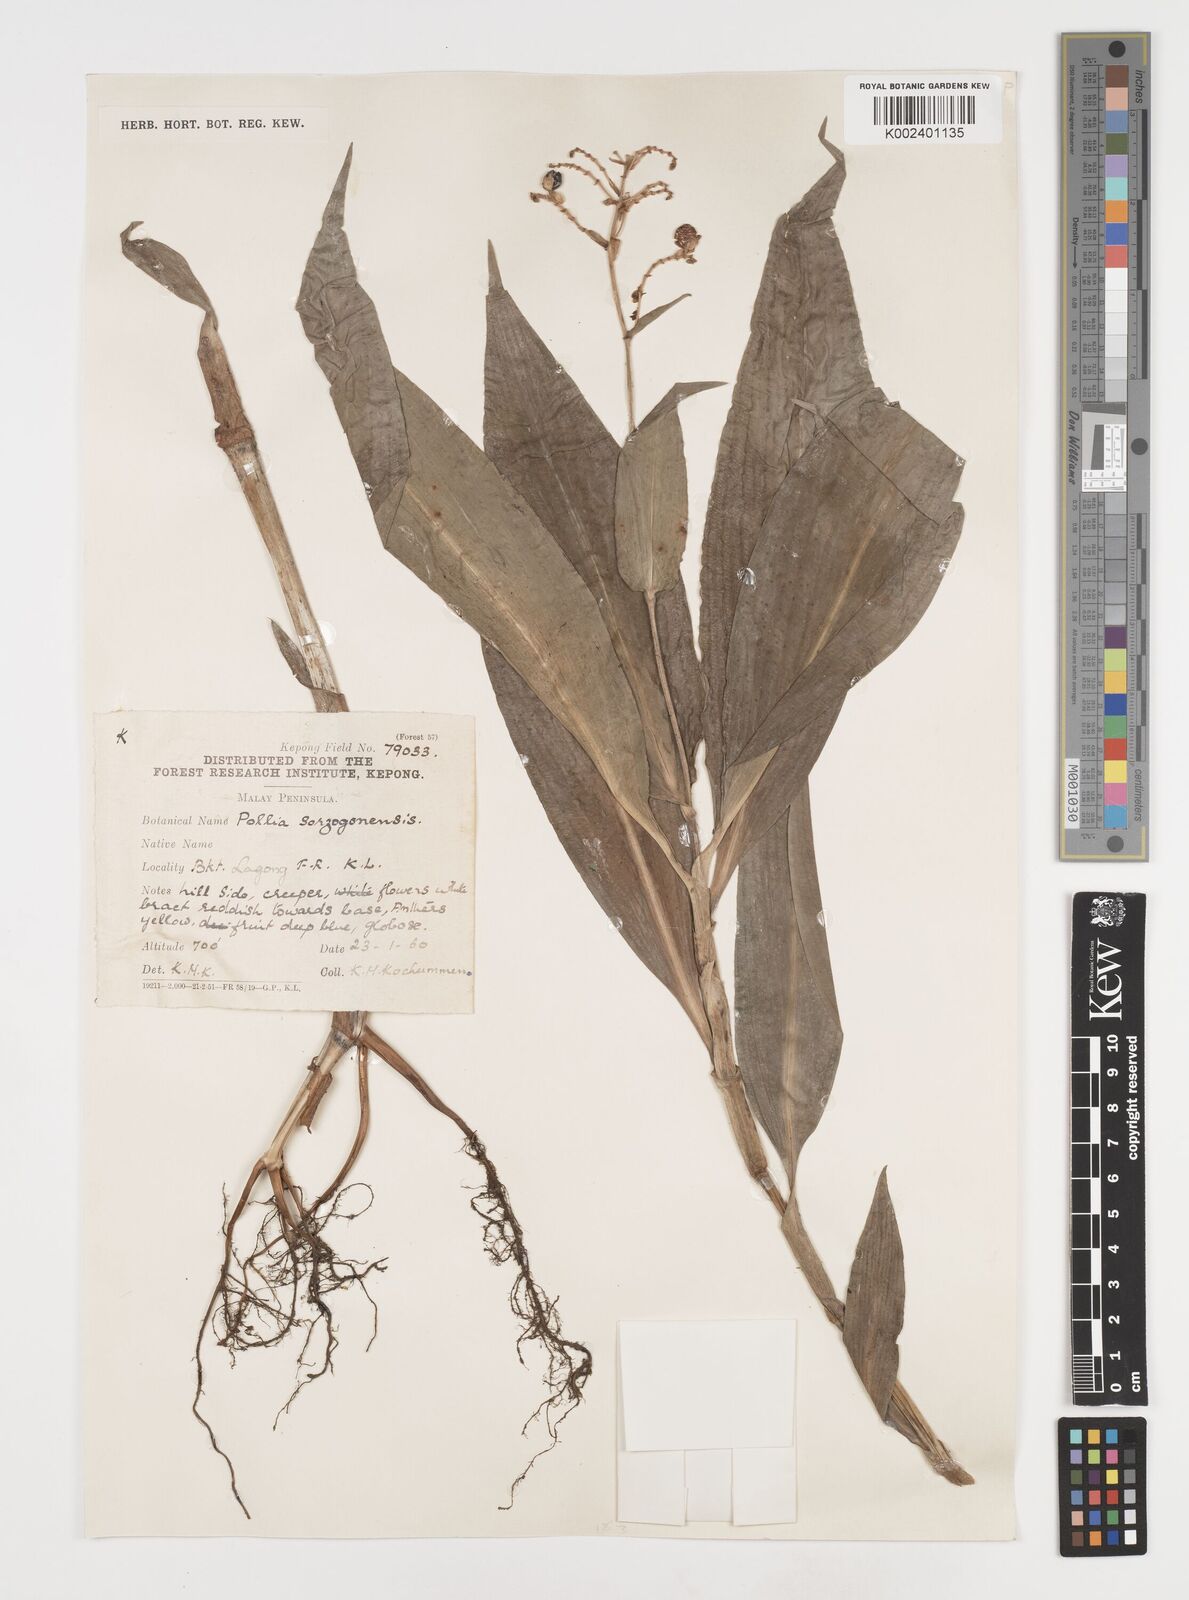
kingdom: Plantae
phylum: Tracheophyta
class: Liliopsida
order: Commelinales
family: Commelinaceae
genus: Pollia
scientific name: Pollia secundiflora
